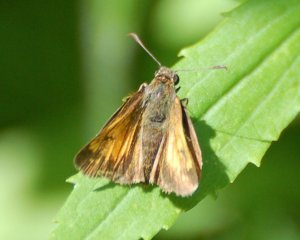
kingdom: Animalia
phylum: Arthropoda
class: Insecta
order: Lepidoptera
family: Hesperiidae
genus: Lon
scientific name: Lon hobomok
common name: Hobomok Skipper
